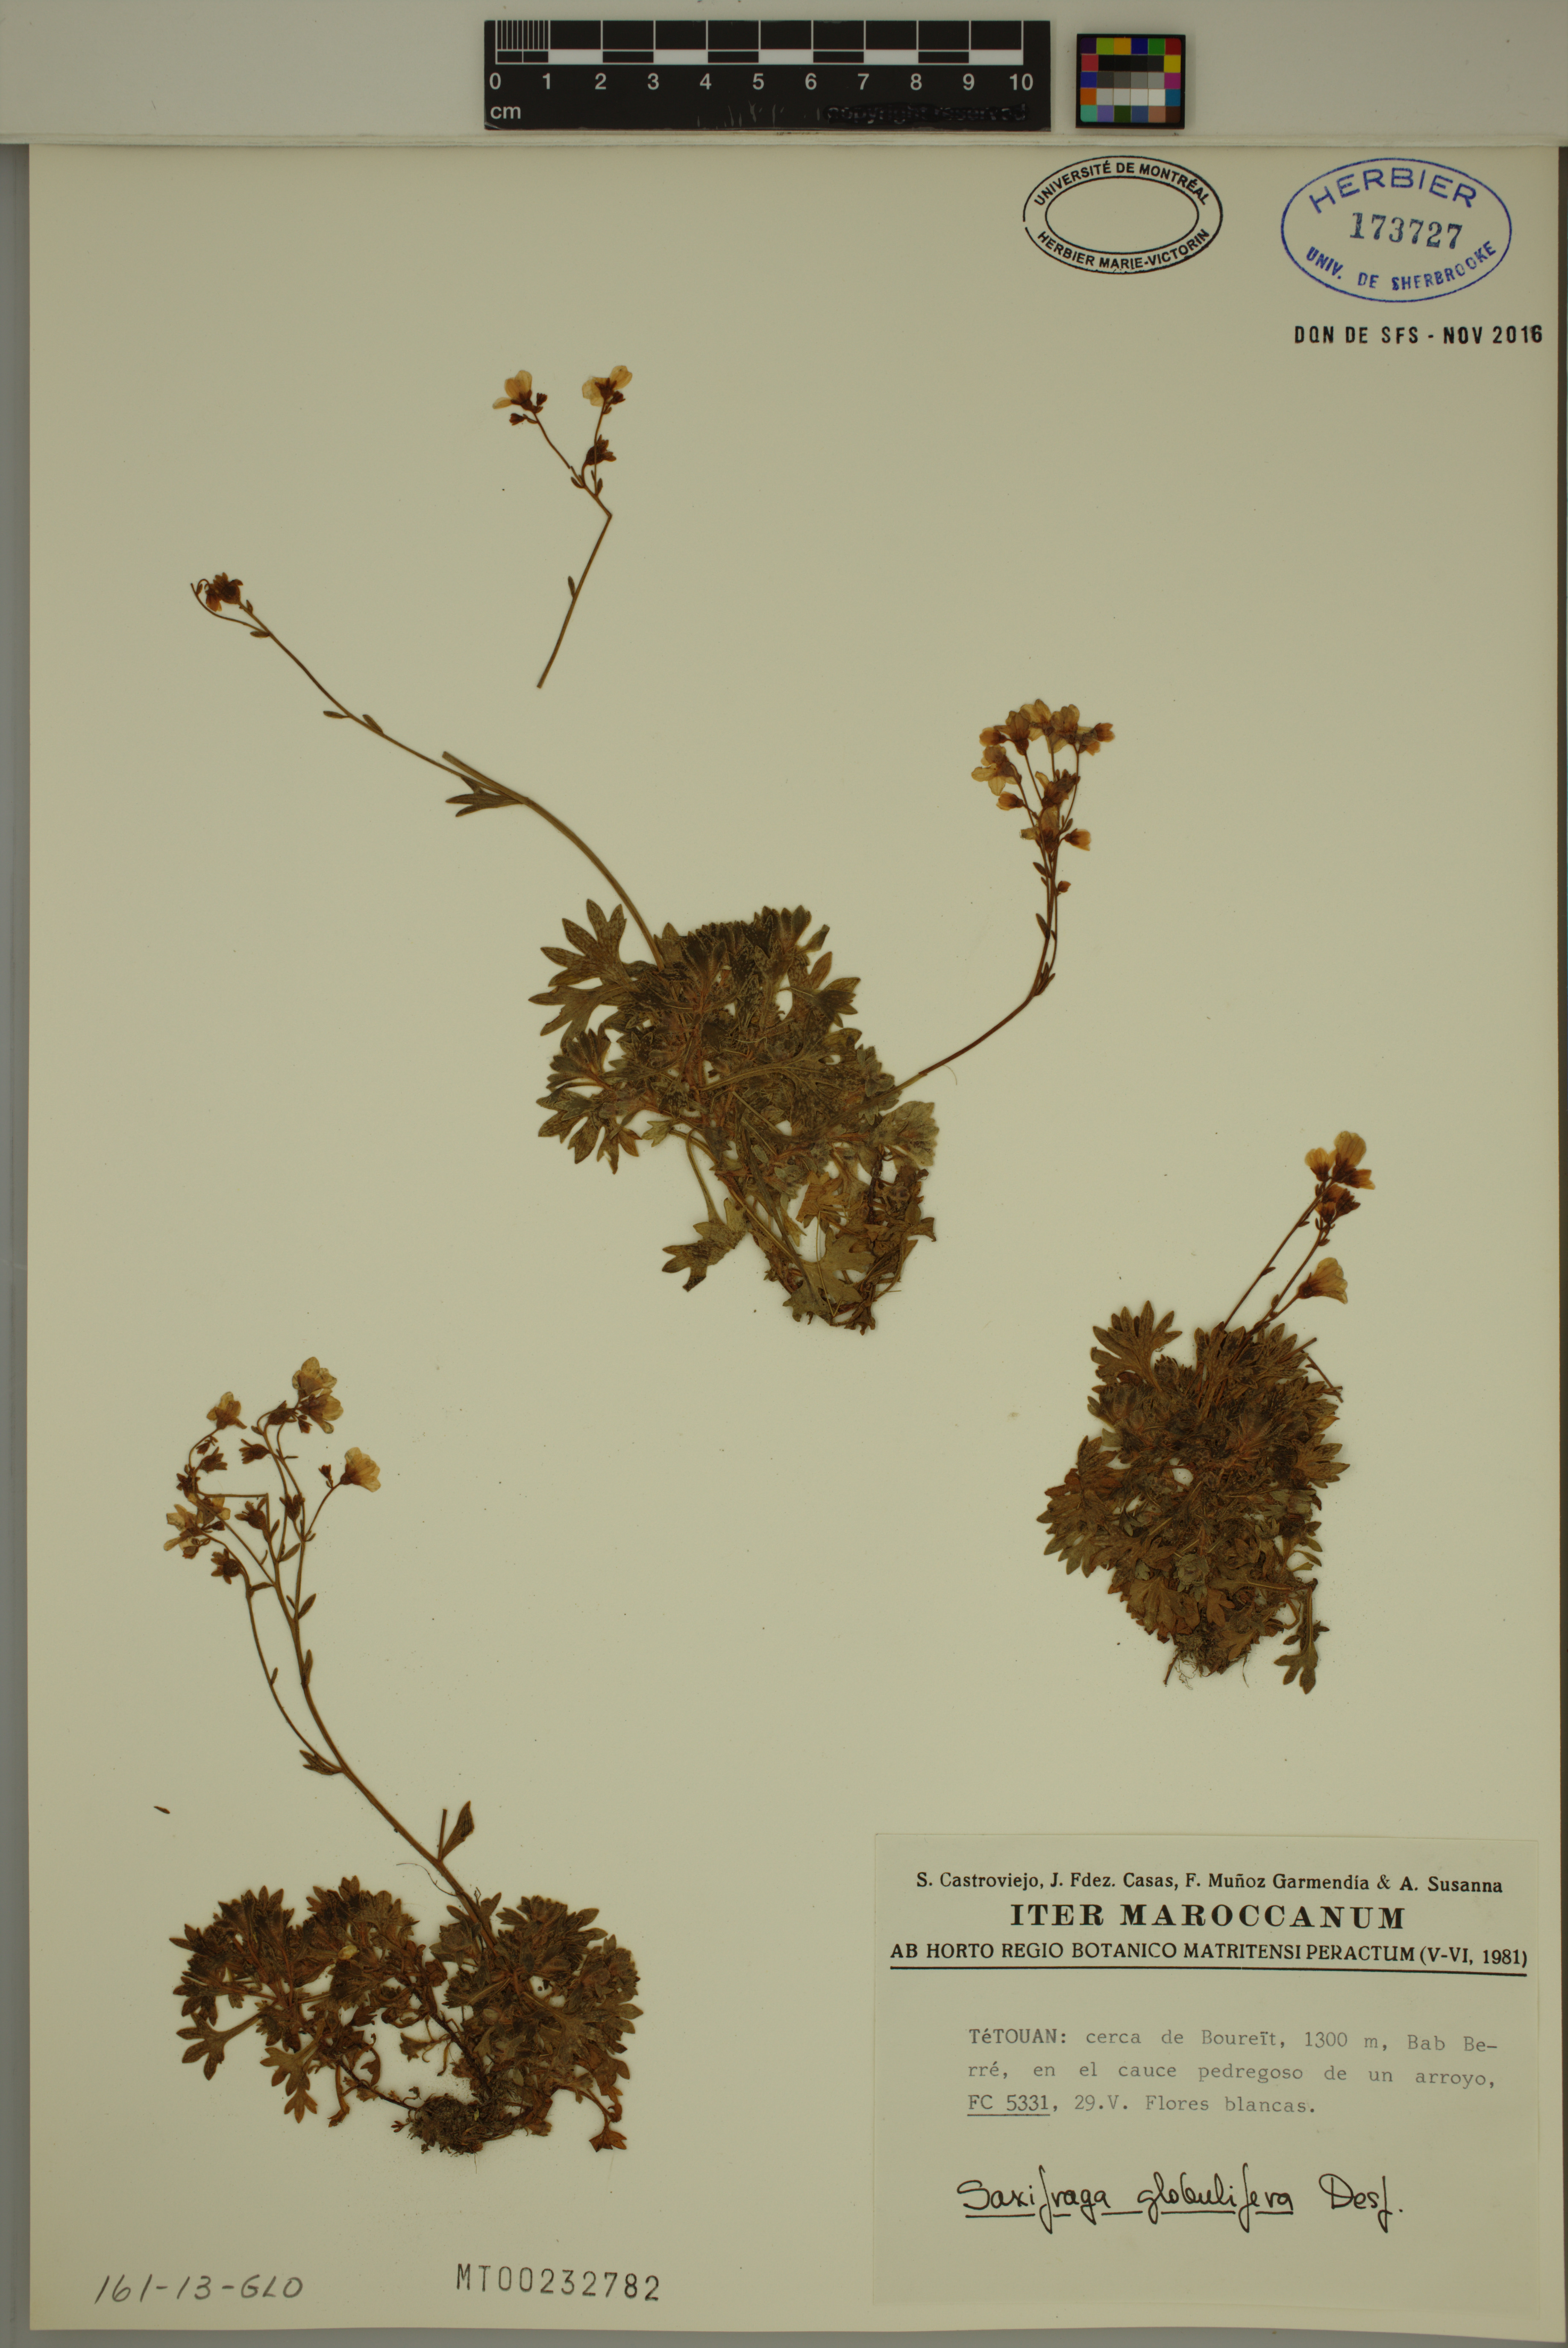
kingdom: Plantae
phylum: Tracheophyta
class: Magnoliopsida
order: Saxifragales
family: Saxifragaceae
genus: Saxifraga
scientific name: Saxifraga globulifera
